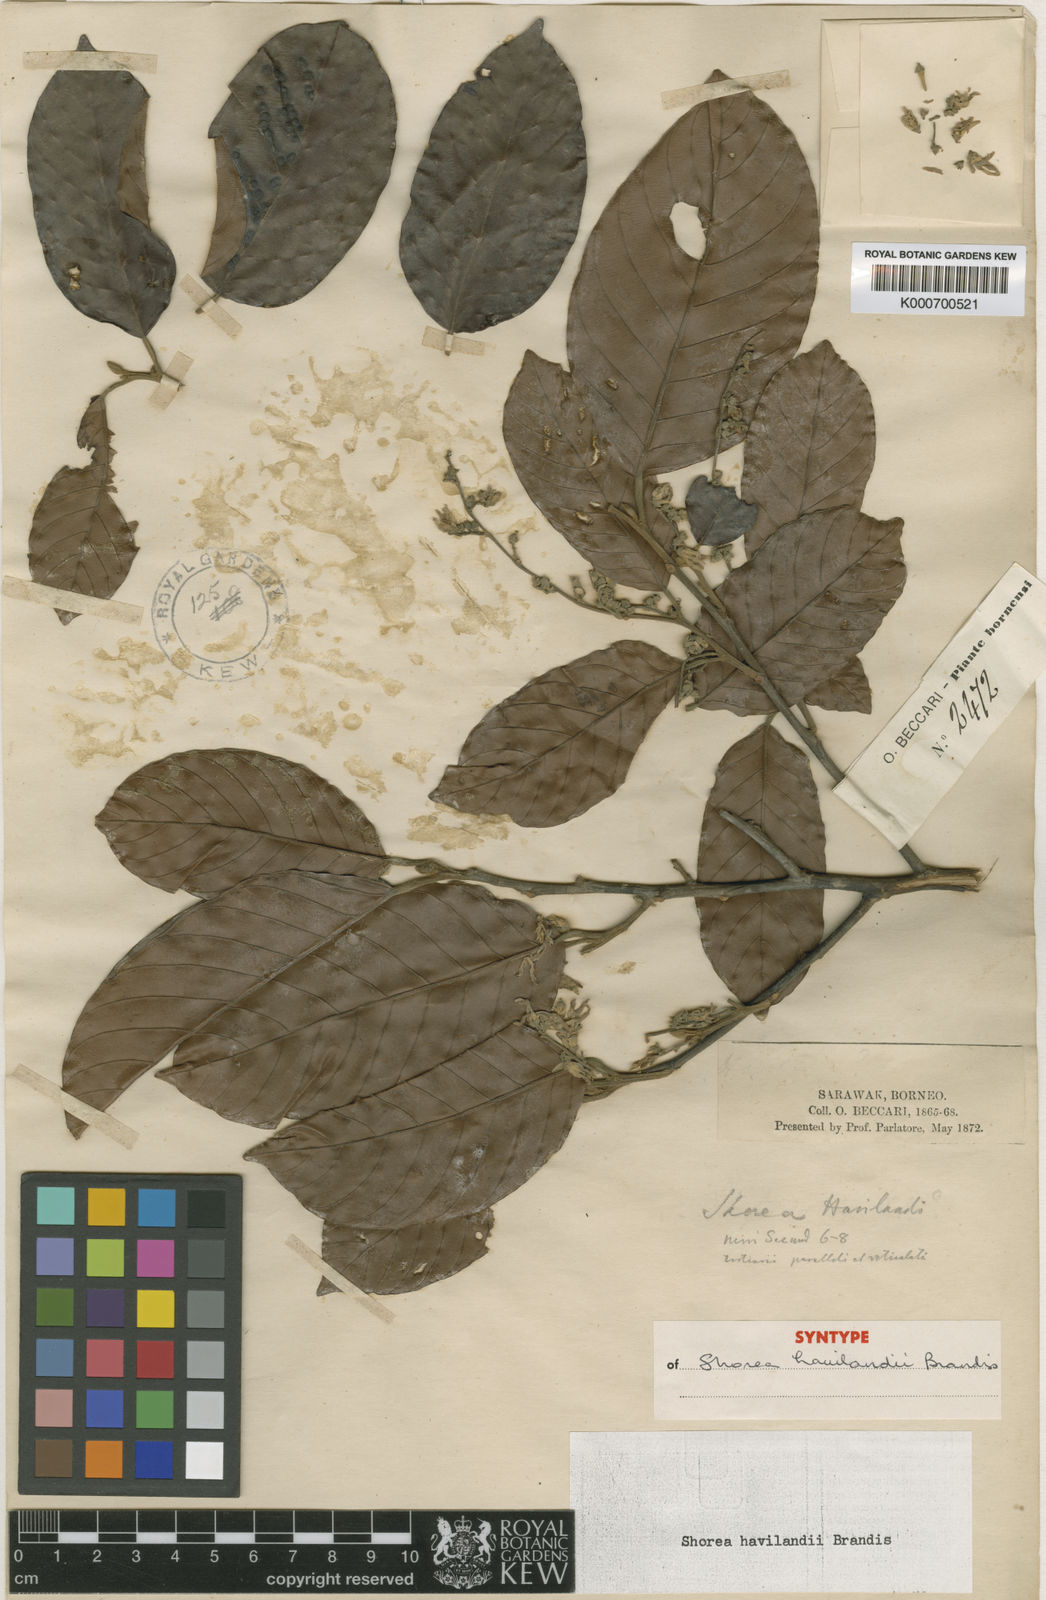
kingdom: Plantae
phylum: Tracheophyta
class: Magnoliopsida
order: Malvales
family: Dipterocarpaceae
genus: Shorea
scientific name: Shorea havilandii
